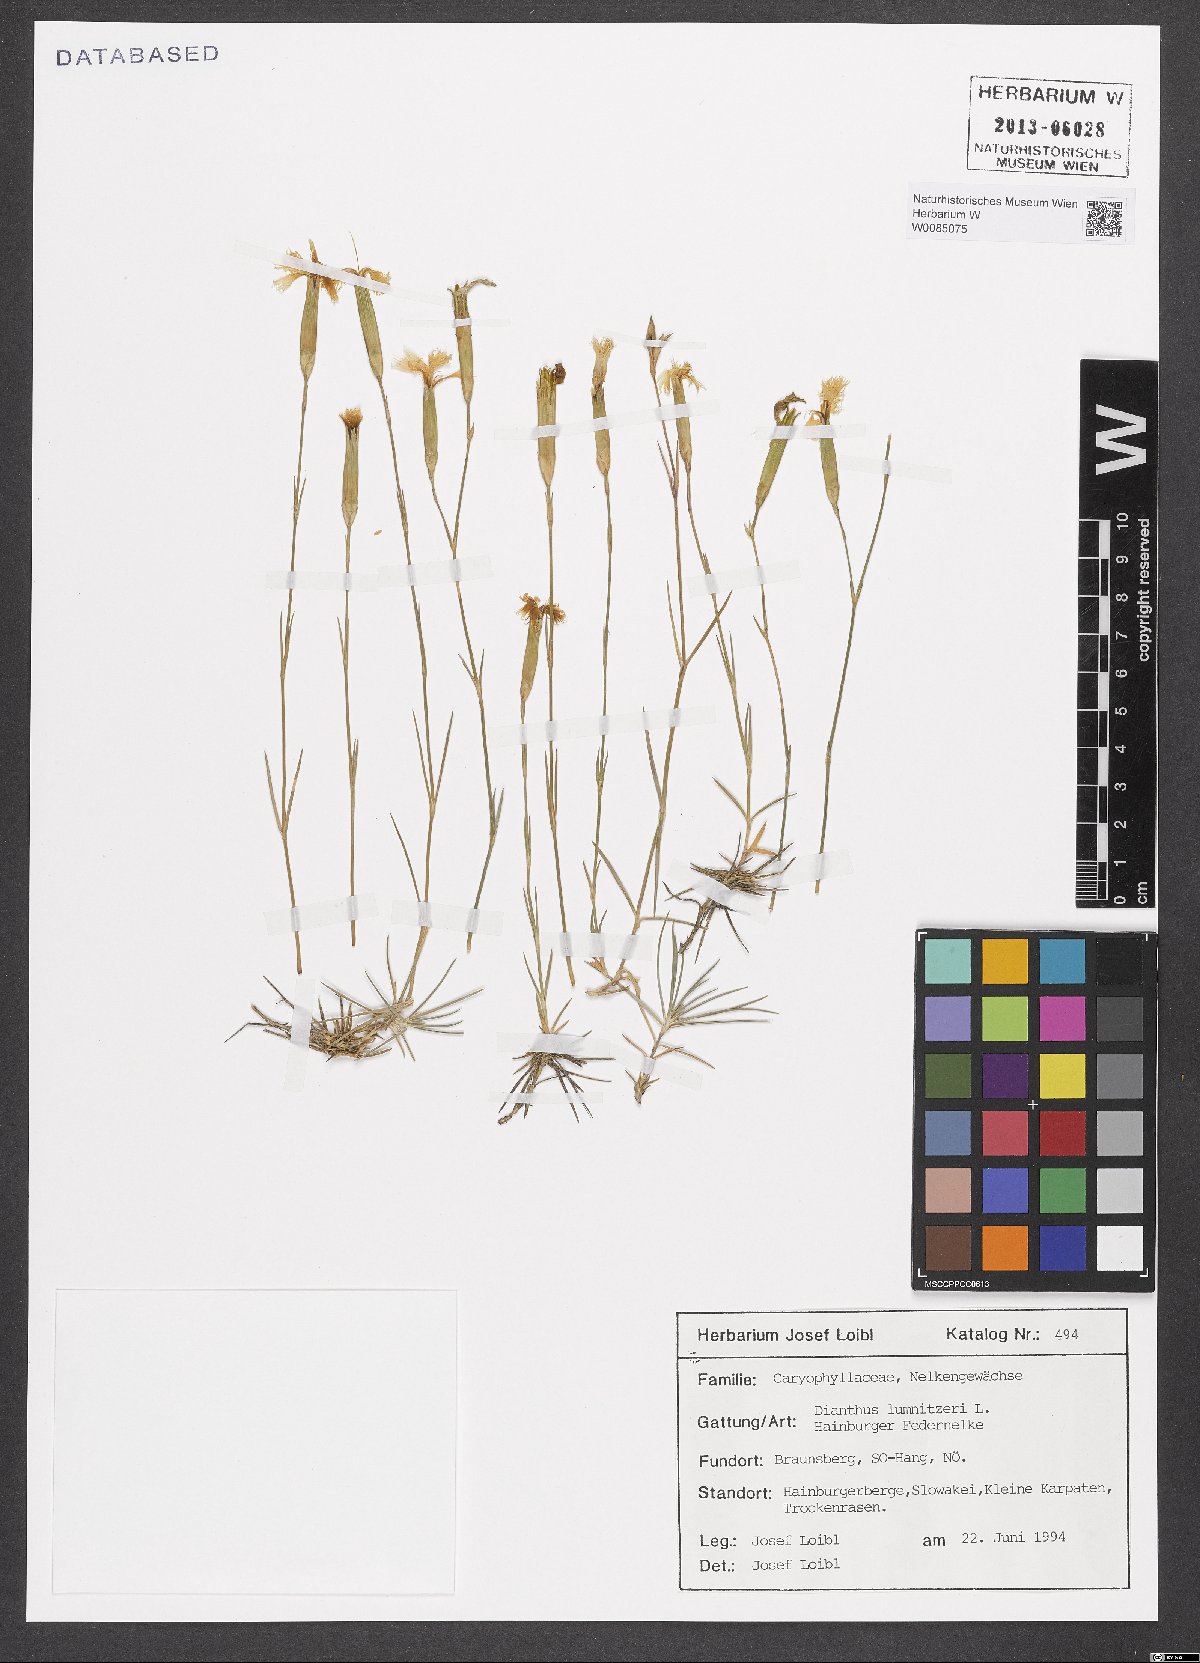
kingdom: Plantae
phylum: Tracheophyta
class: Magnoliopsida
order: Caryophyllales
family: Caryophyllaceae
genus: Dianthus
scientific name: Dianthus praecox
